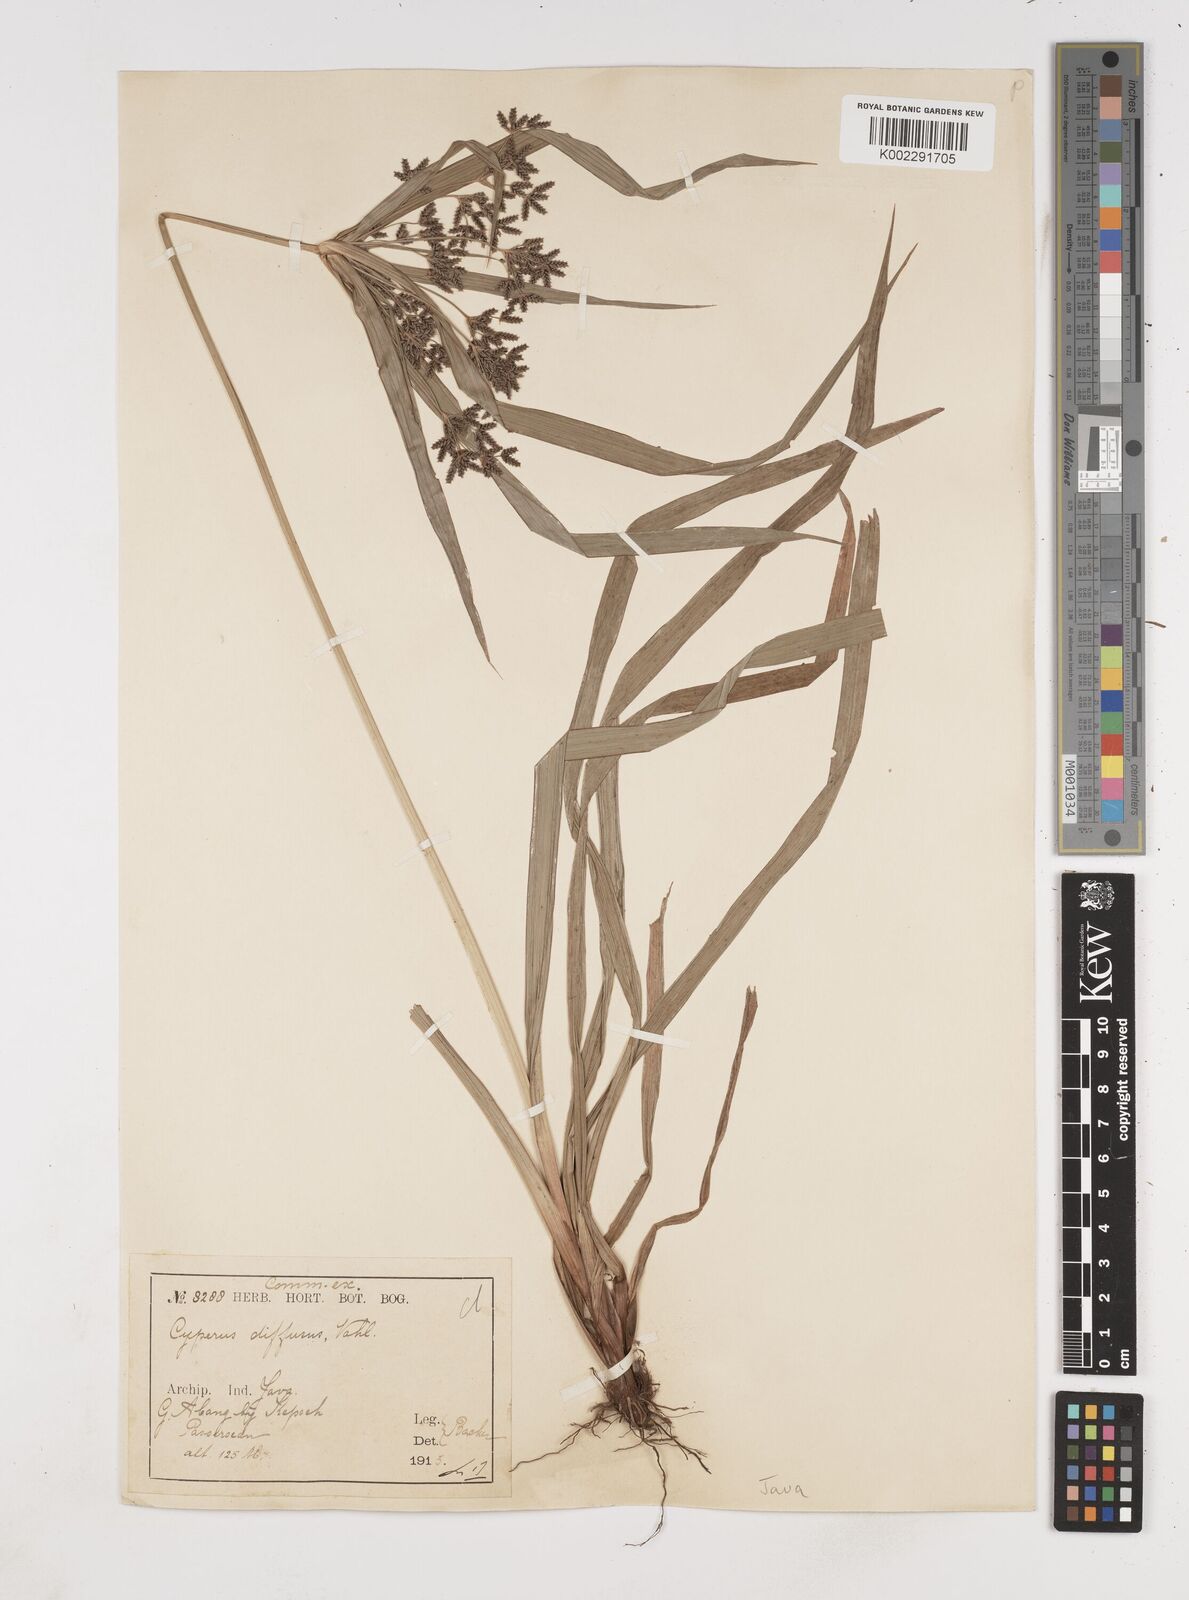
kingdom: Plantae
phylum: Tracheophyta
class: Liliopsida
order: Poales
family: Cyperaceae
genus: Cyperus
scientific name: Cyperus diffusus
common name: Dwarf umbrella grass
